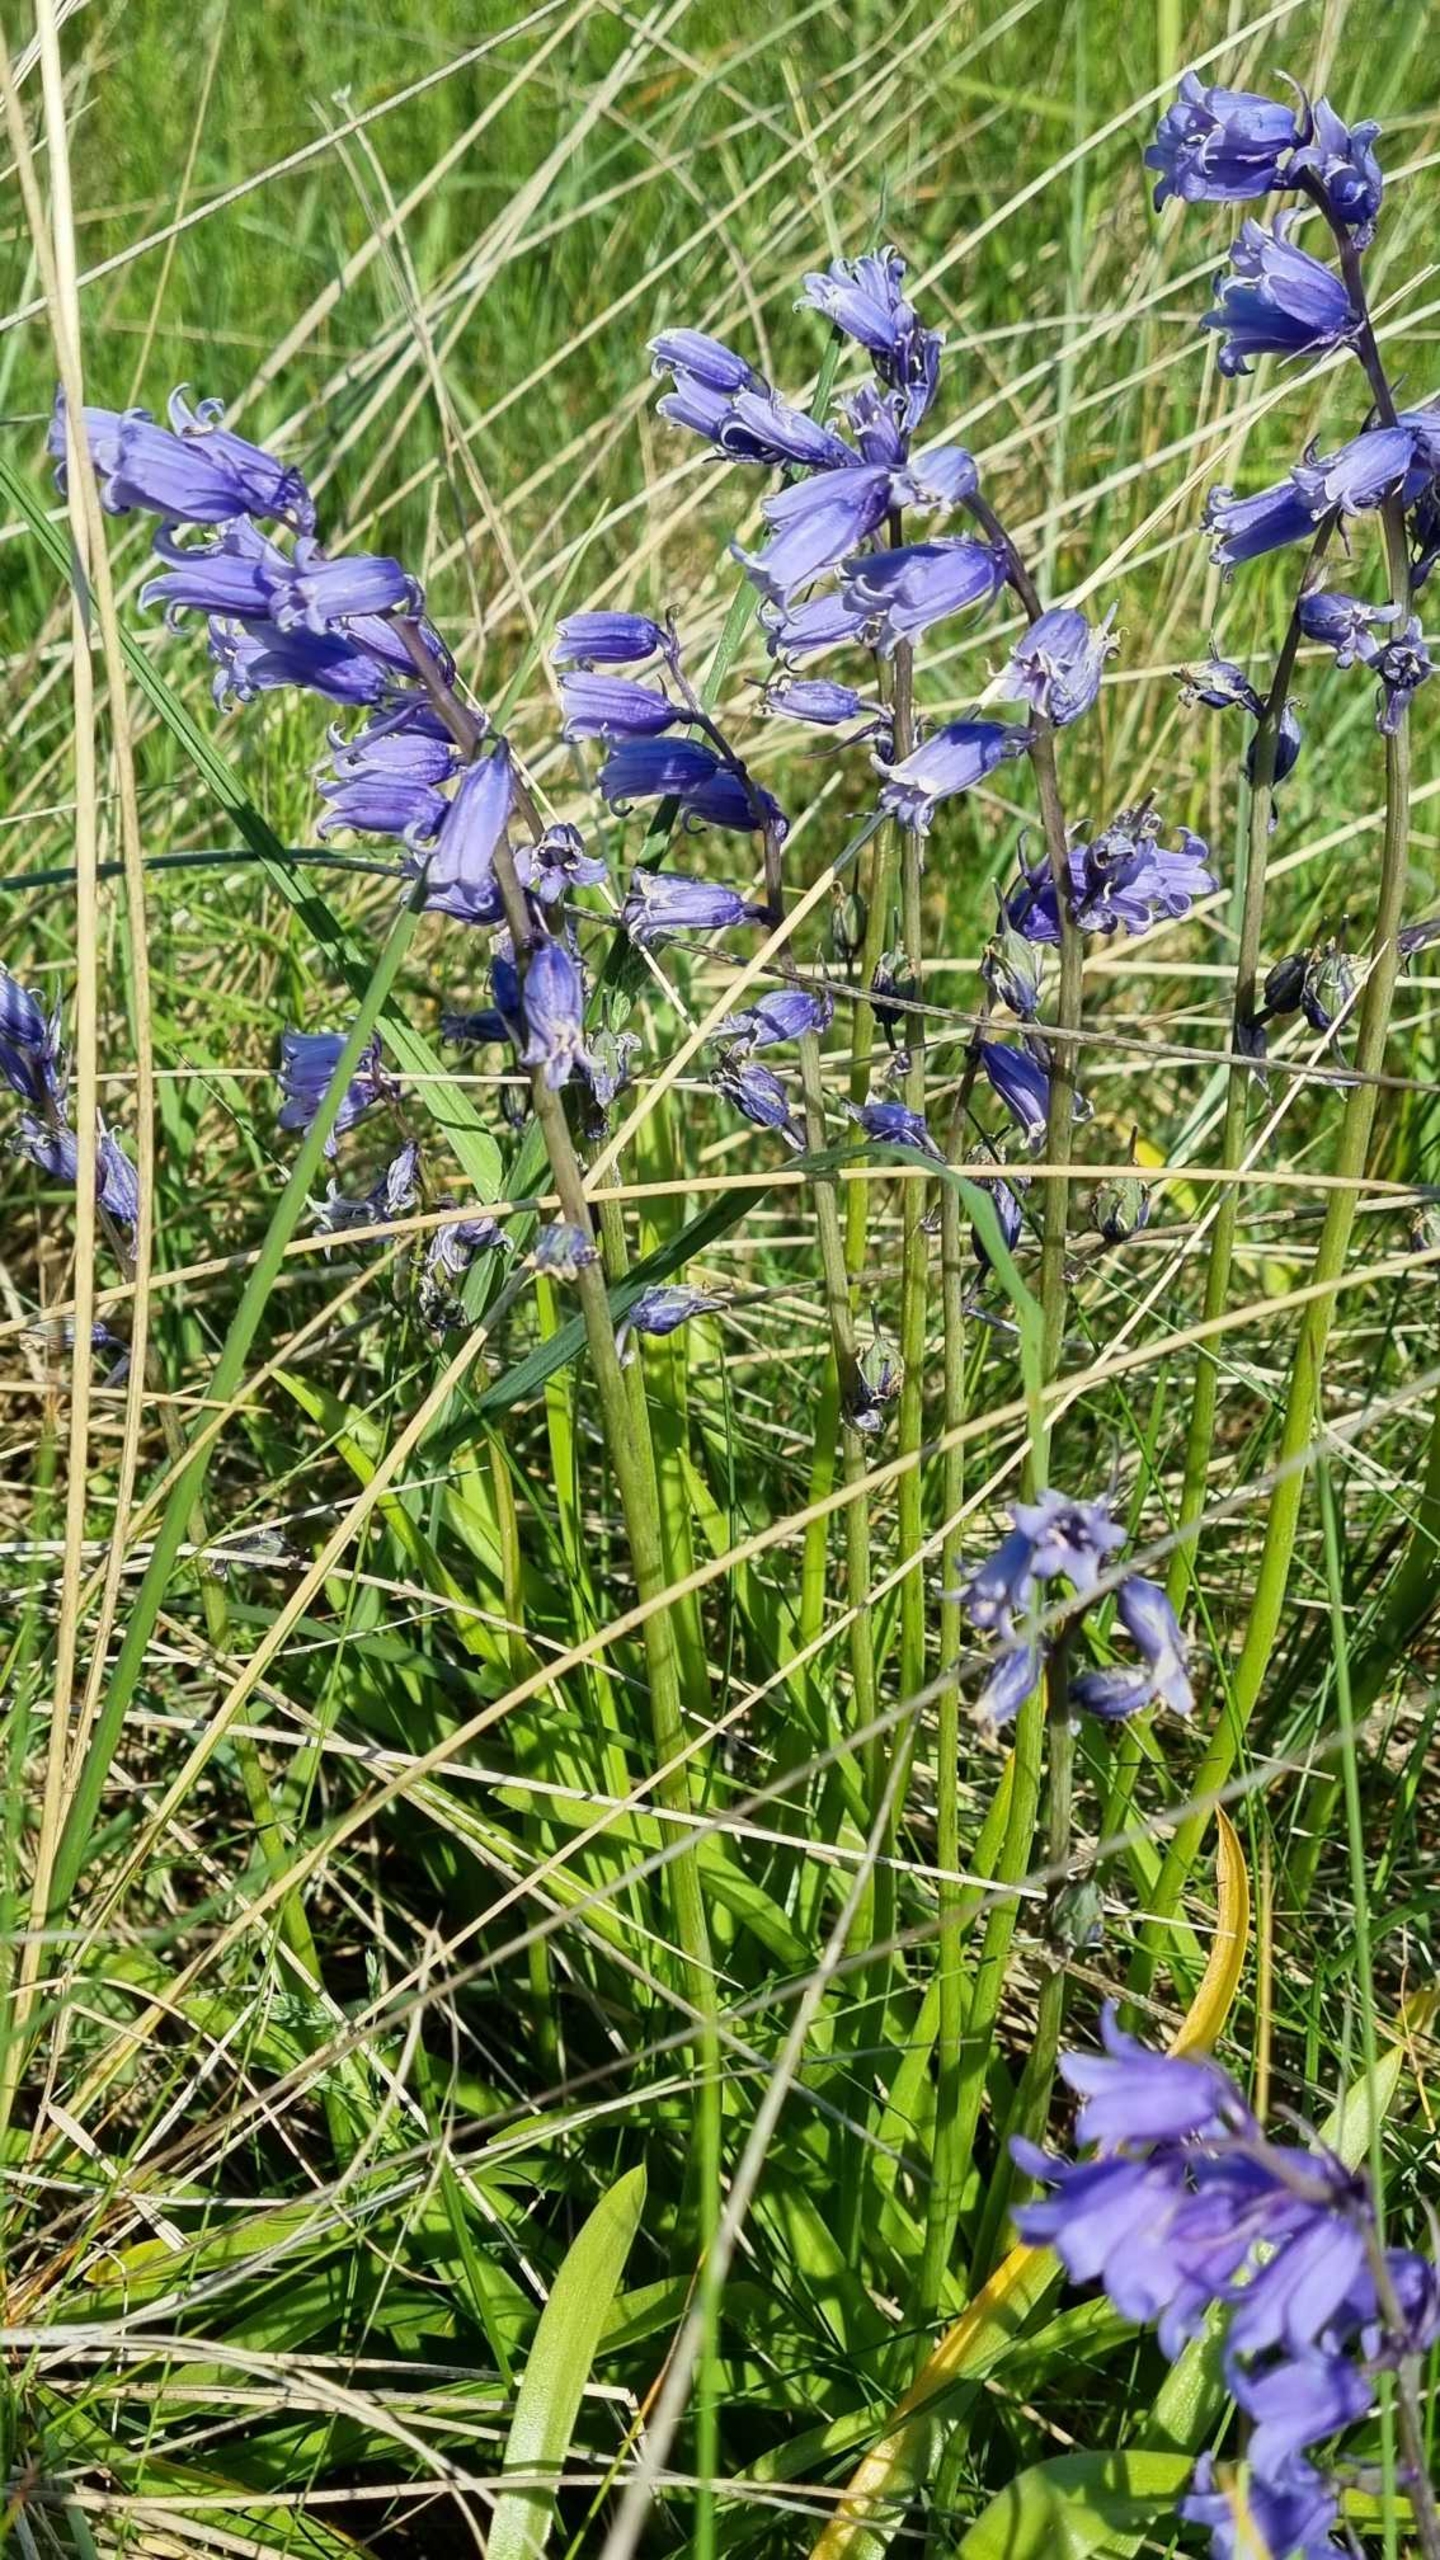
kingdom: Plantae
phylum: Tracheophyta
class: Liliopsida
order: Asparagales
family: Asparagaceae
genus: Hyacinthoides
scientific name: Hyacinthoides massartiana
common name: Hybrid-klokkeskilla
